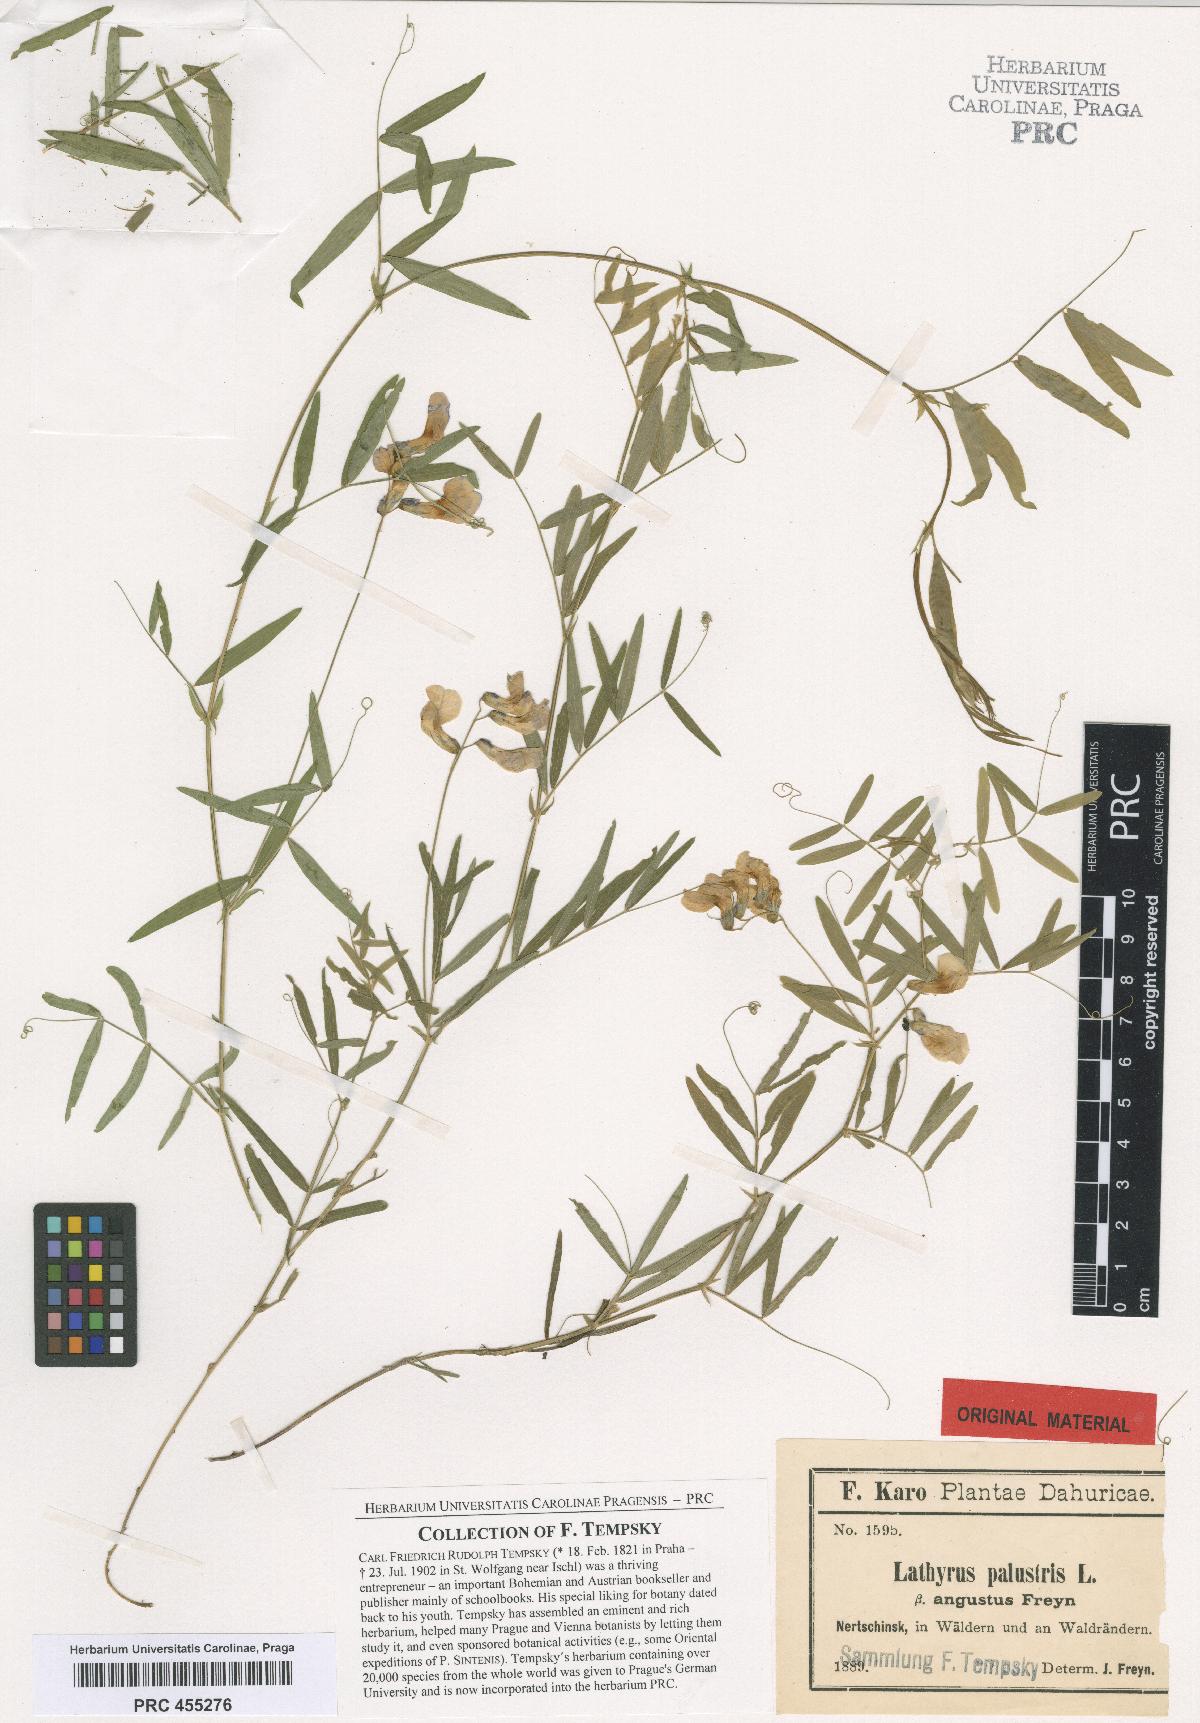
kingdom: Plantae
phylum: Tracheophyta
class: Magnoliopsida
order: Fabales
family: Fabaceae
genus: Lathyrus
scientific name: Lathyrus palustris
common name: Marsh pea
